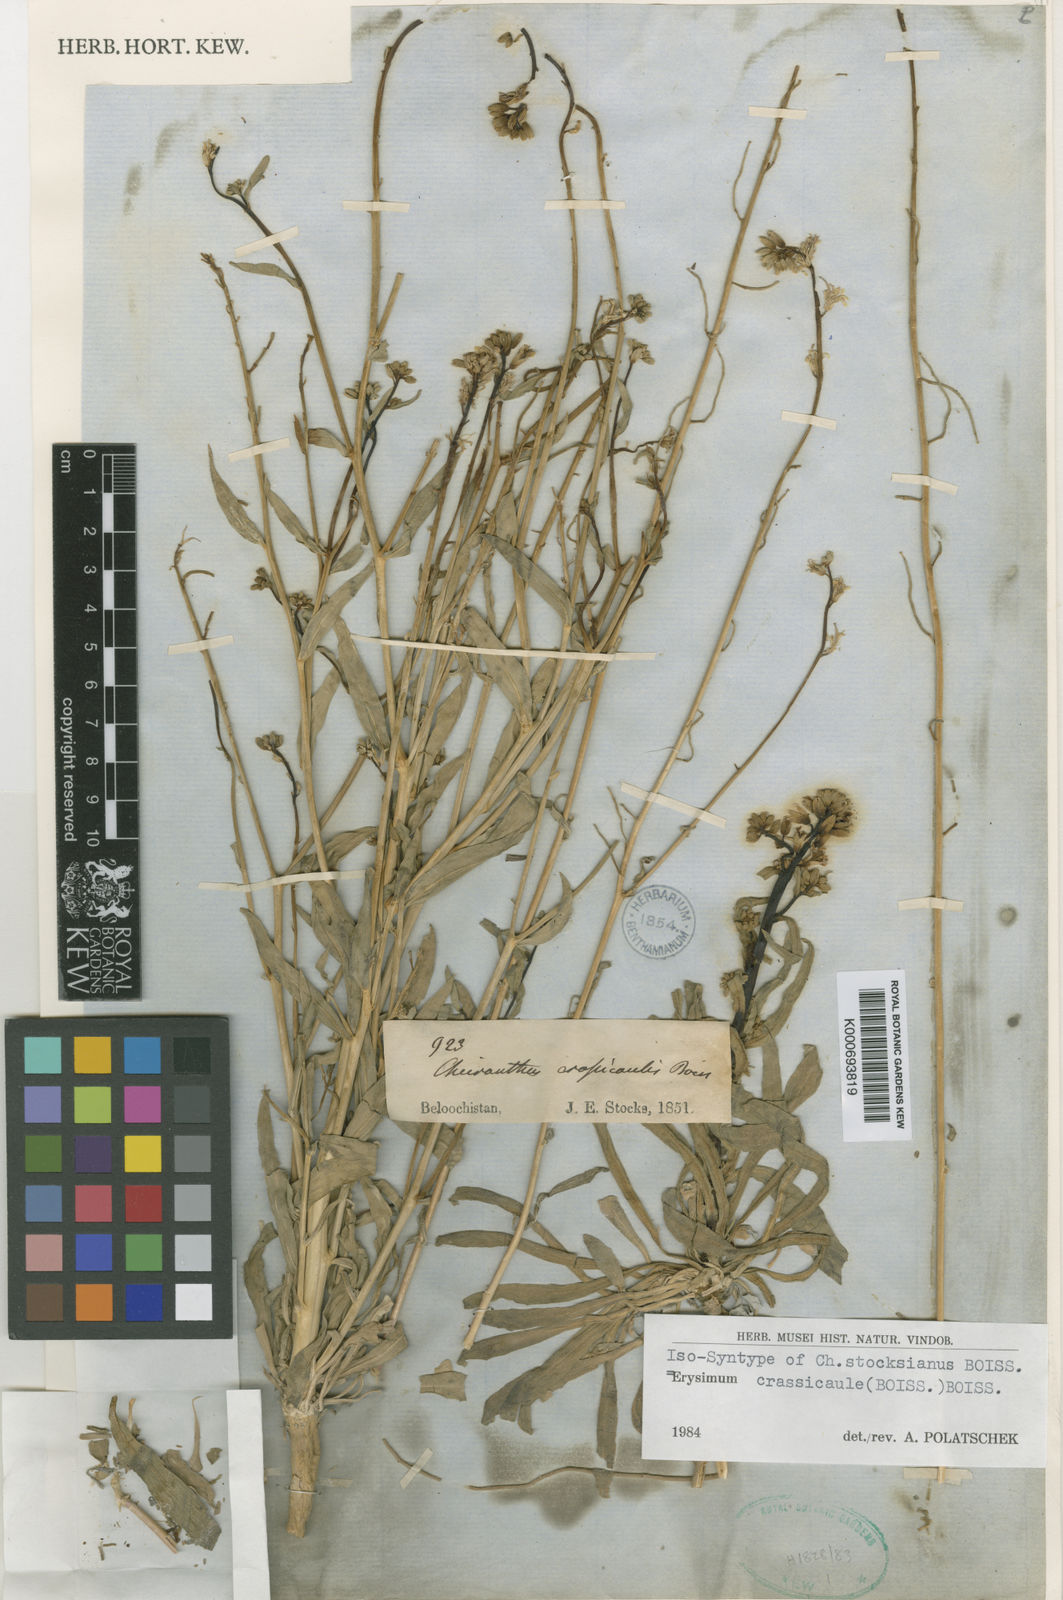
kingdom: Plantae
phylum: Tracheophyta
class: Magnoliopsida
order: Brassicales
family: Brassicaceae
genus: Erysimum
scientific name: Erysimum crassicaule
